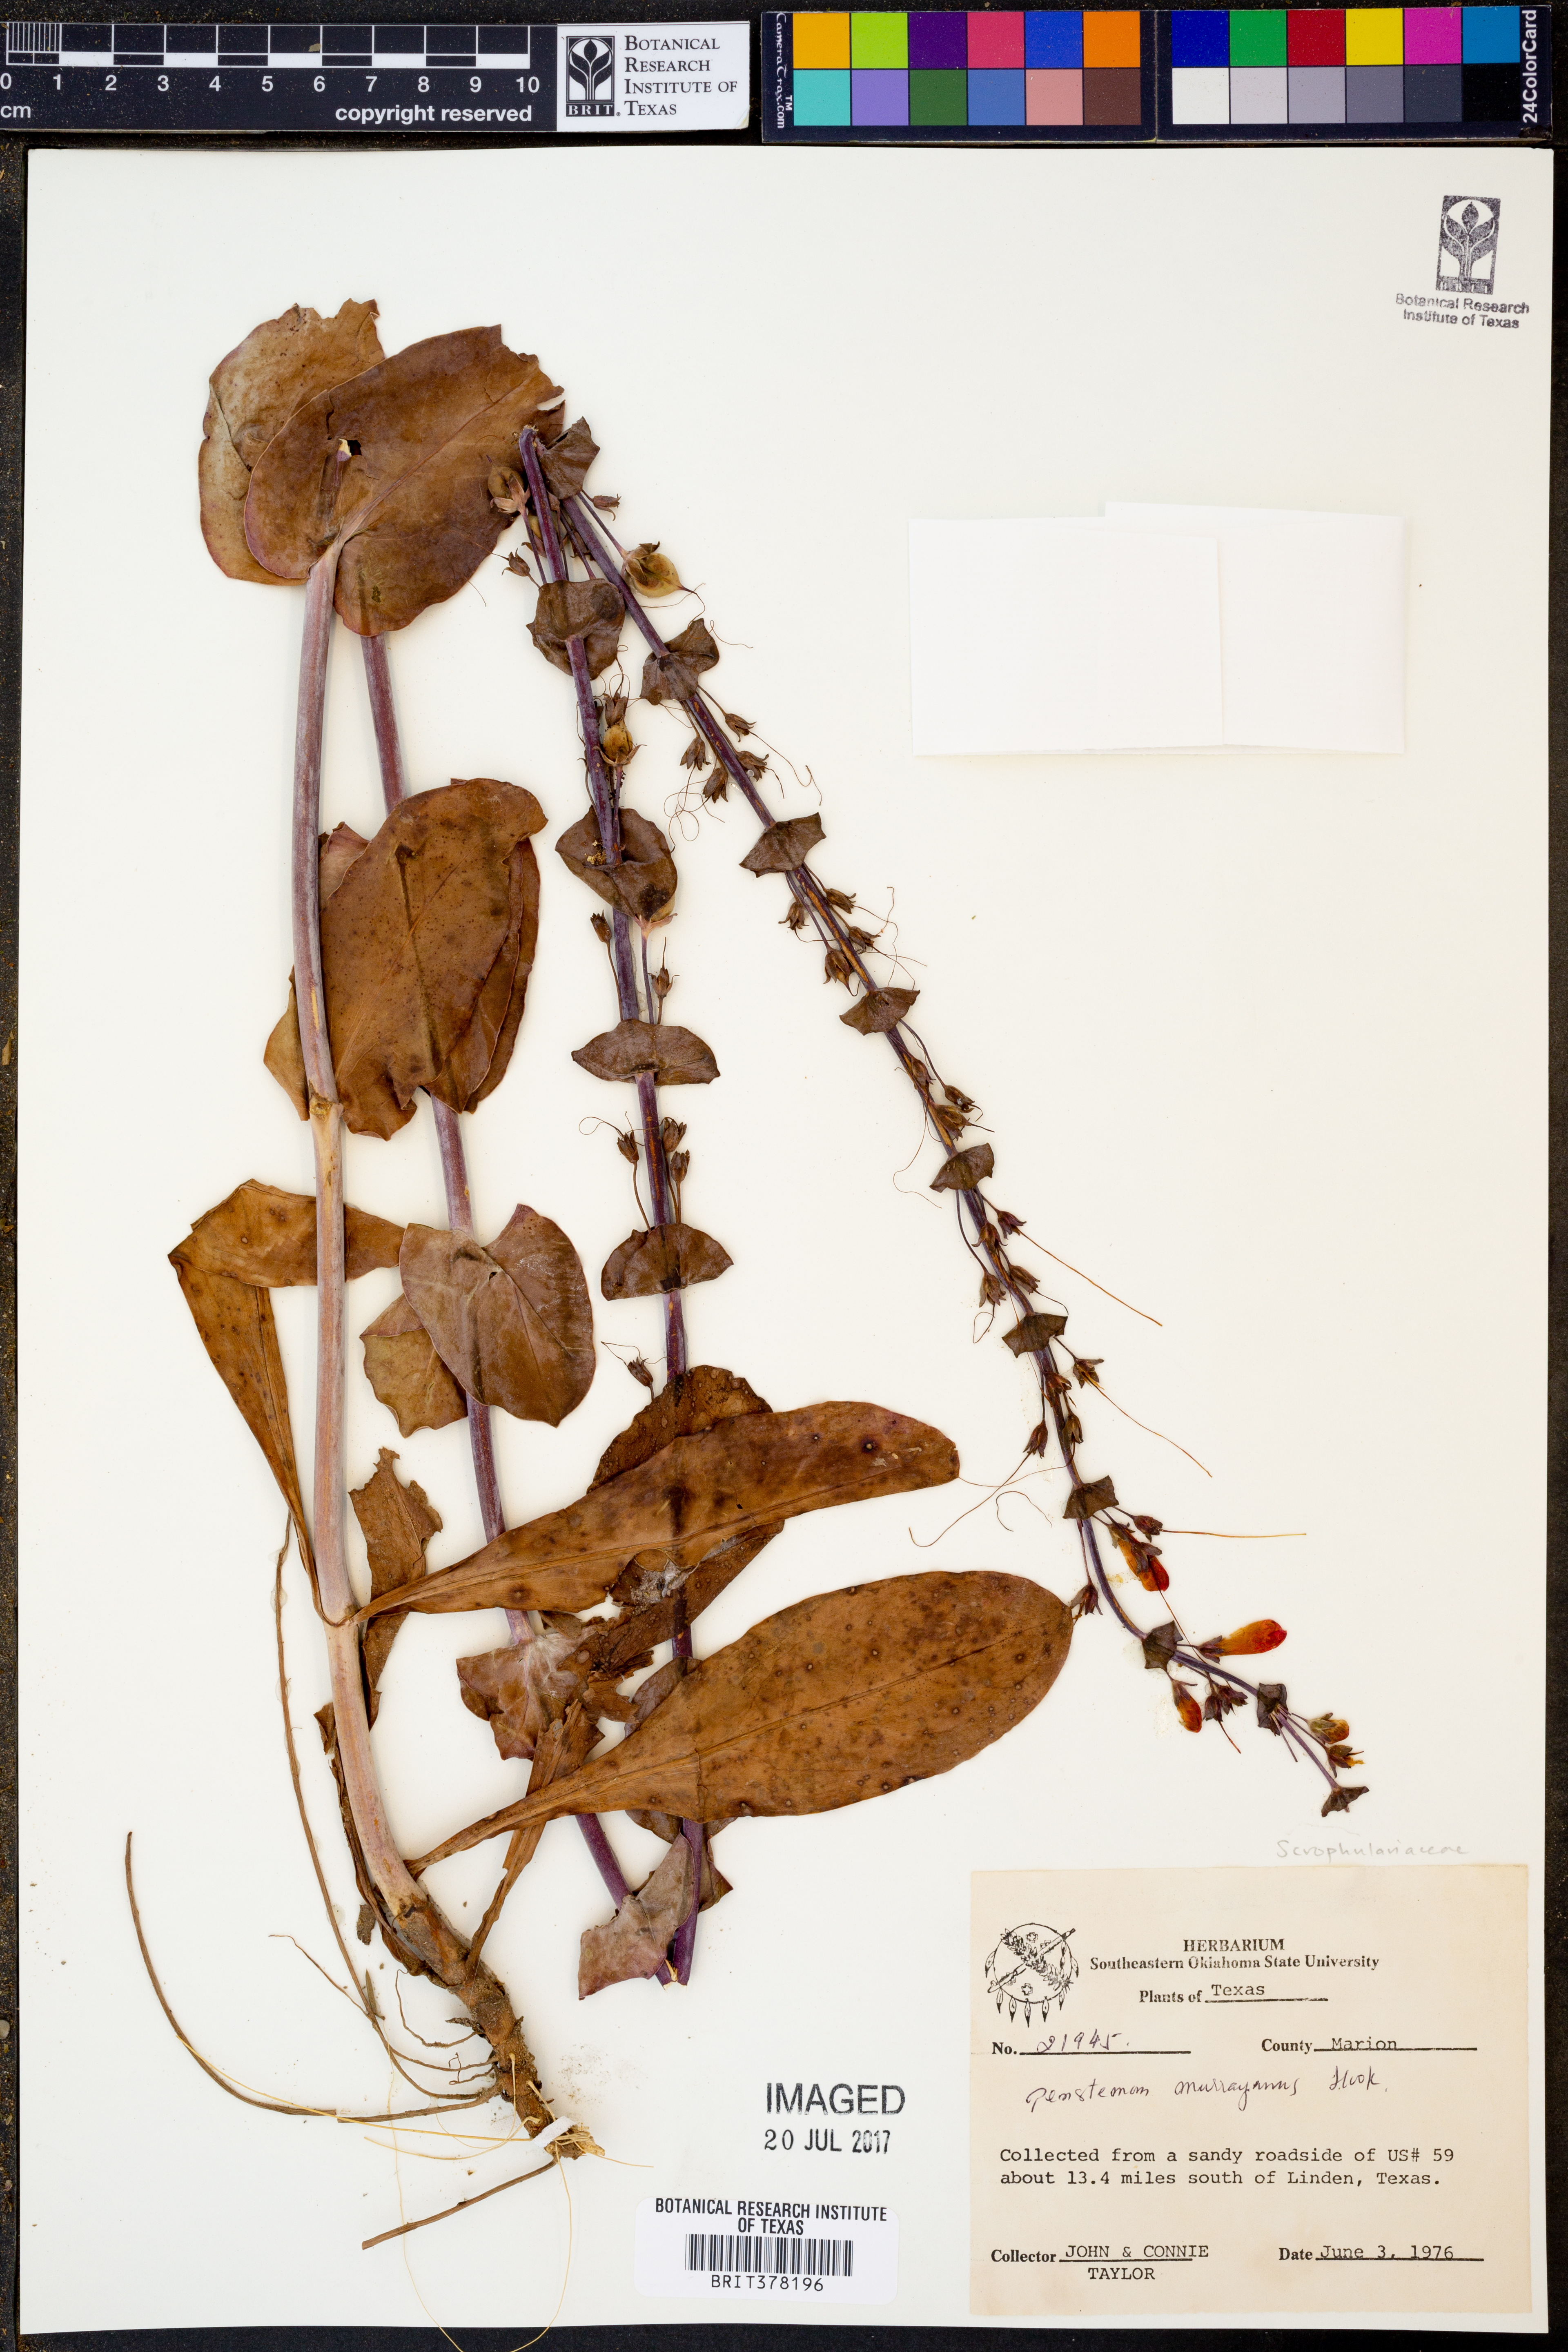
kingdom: Plantae
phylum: Tracheophyta
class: Magnoliopsida
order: Lamiales
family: Plantaginaceae
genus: Penstemon
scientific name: Penstemon murrayanus
